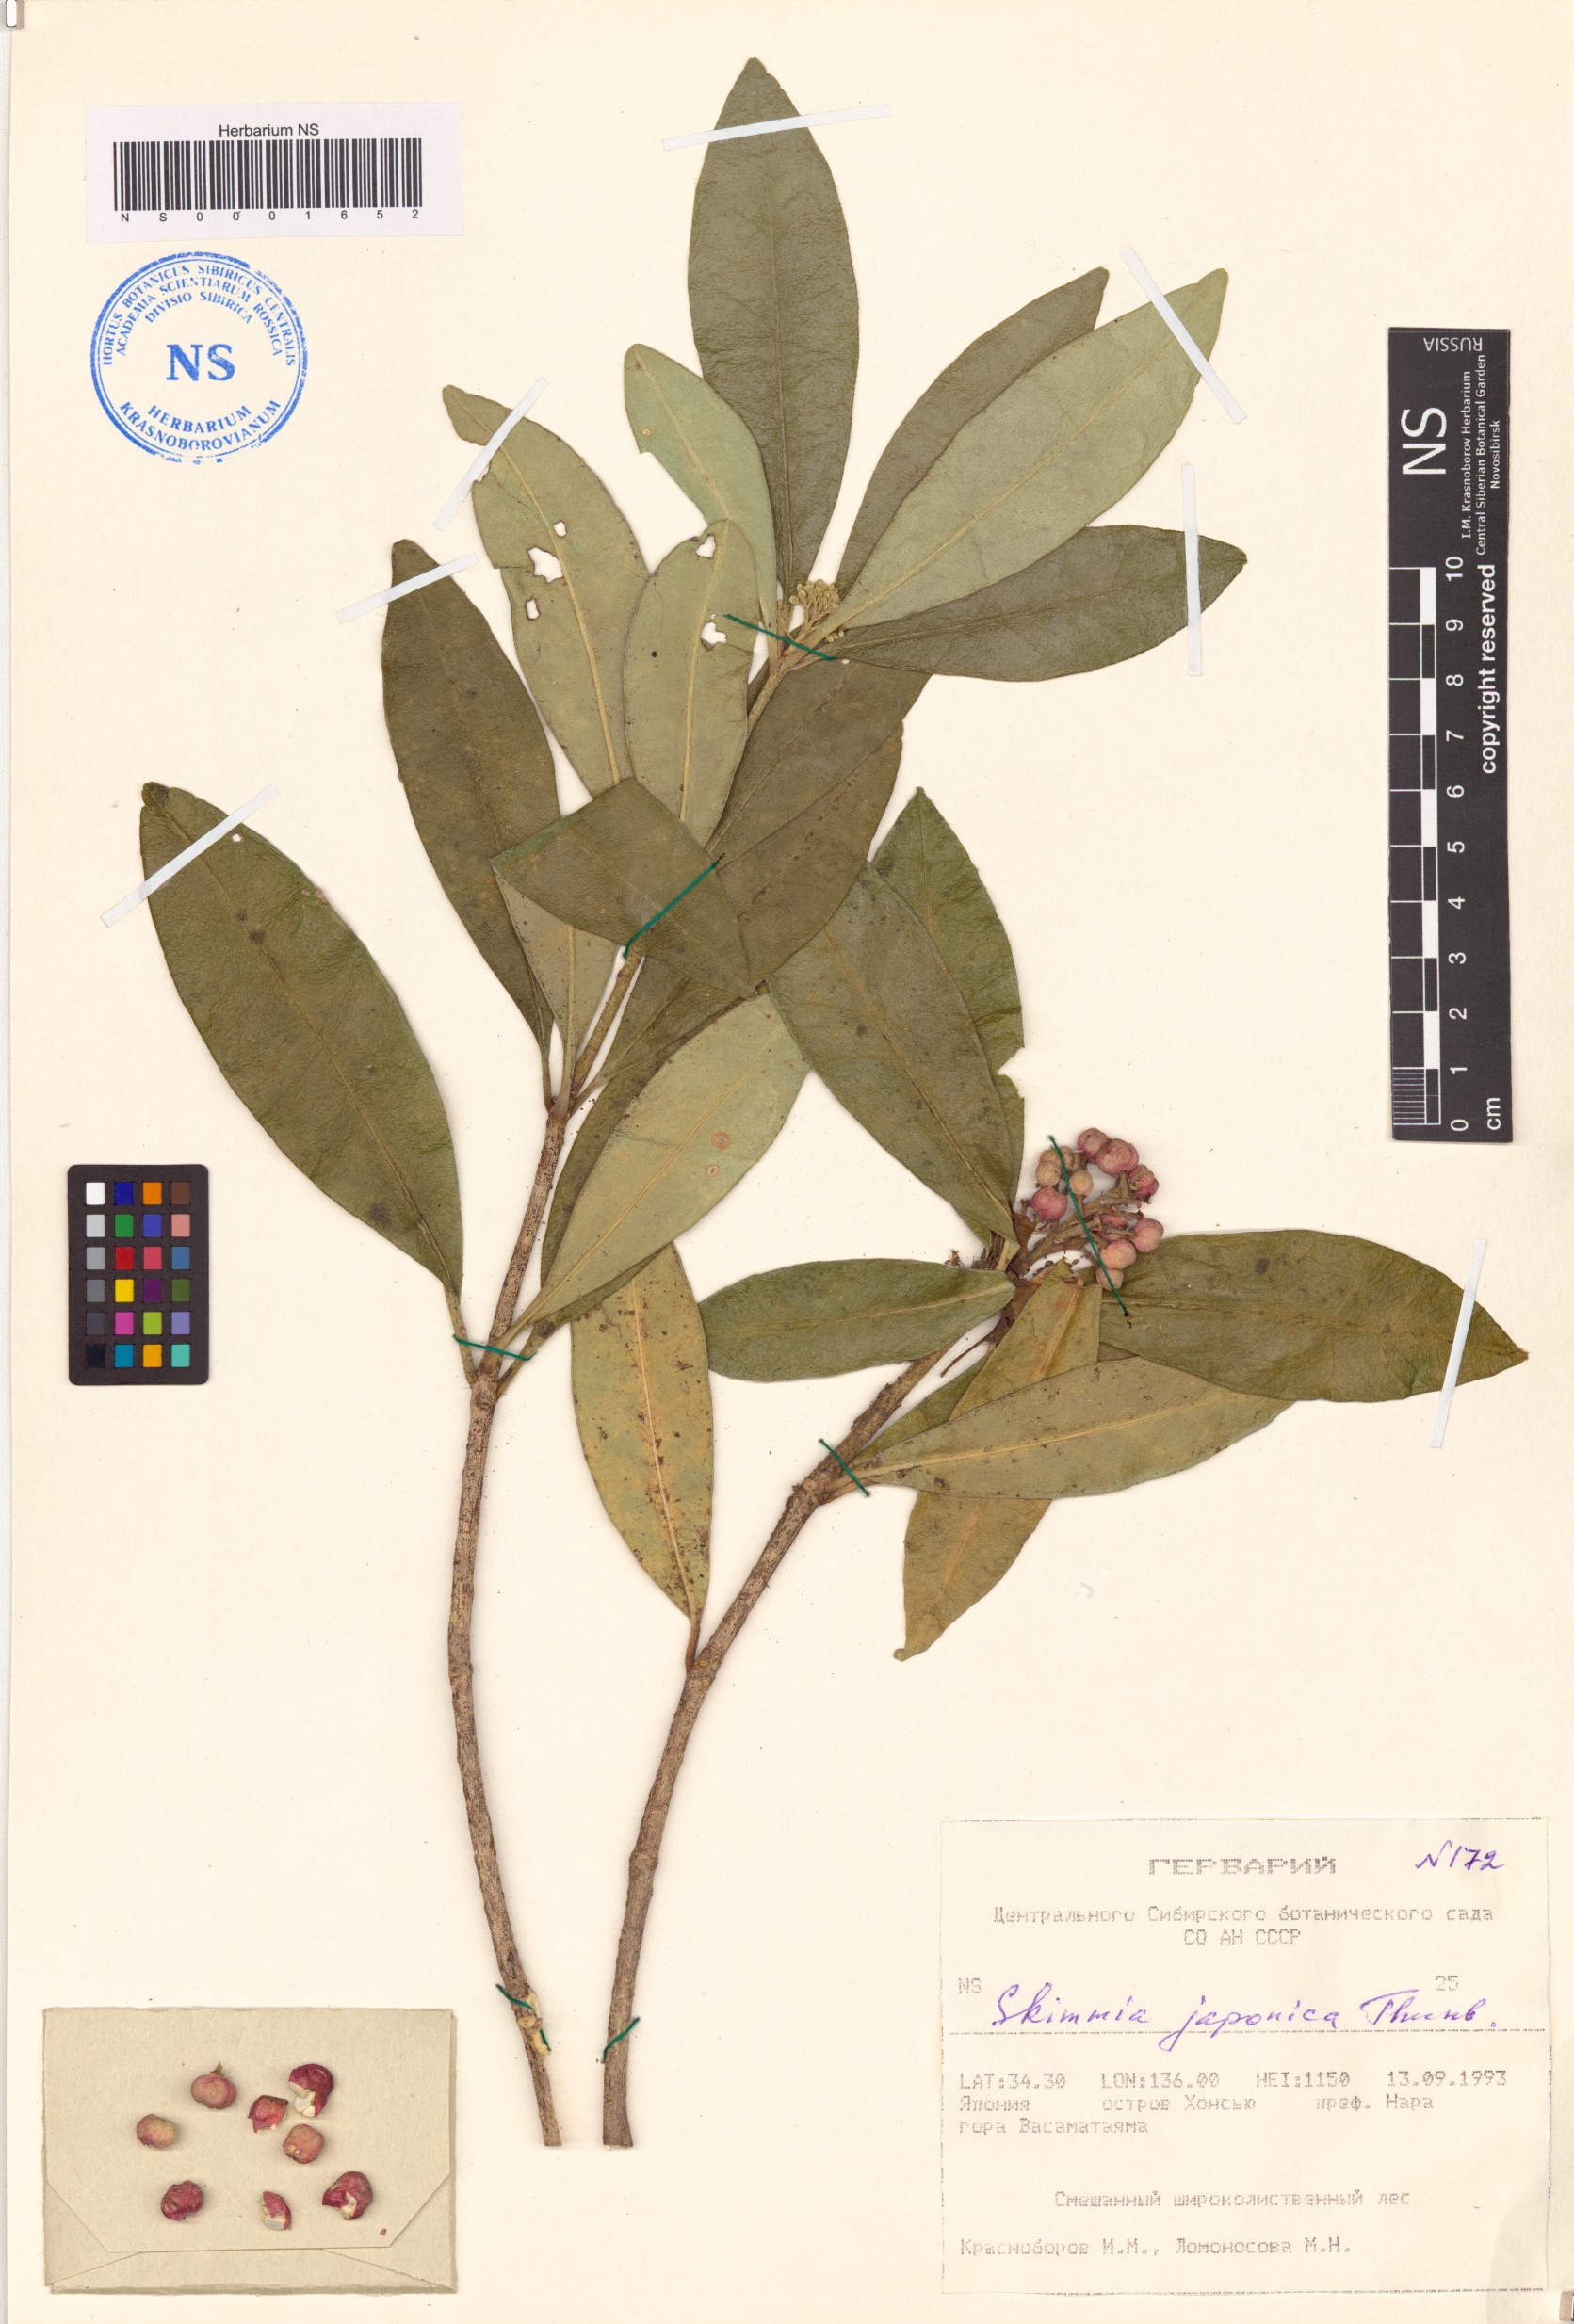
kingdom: Plantae
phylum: Tracheophyta
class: Magnoliopsida
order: Sapindales
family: Rutaceae
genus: Skimmia
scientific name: Skimmia japonica
